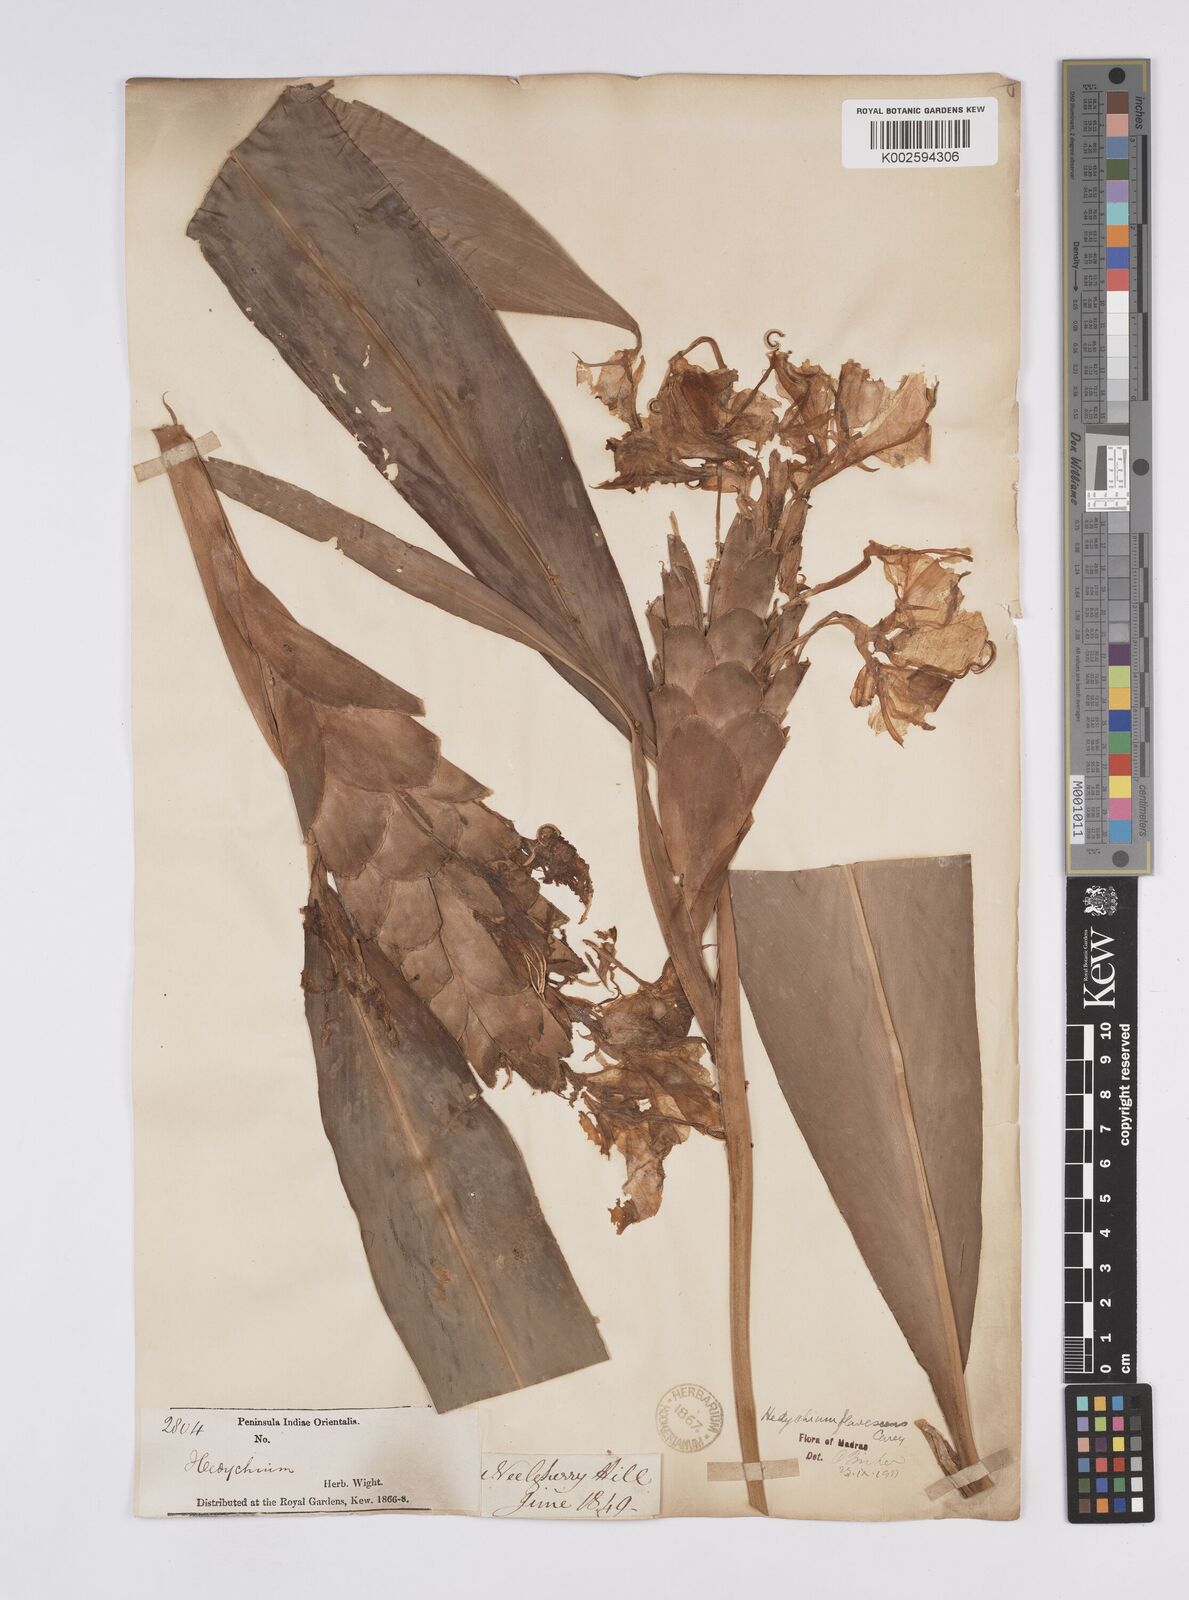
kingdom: Plantae
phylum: Tracheophyta
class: Liliopsida
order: Zingiberales
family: Zingiberaceae
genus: Hedychium
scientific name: Hedychium flavescens
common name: Yellow ginger
